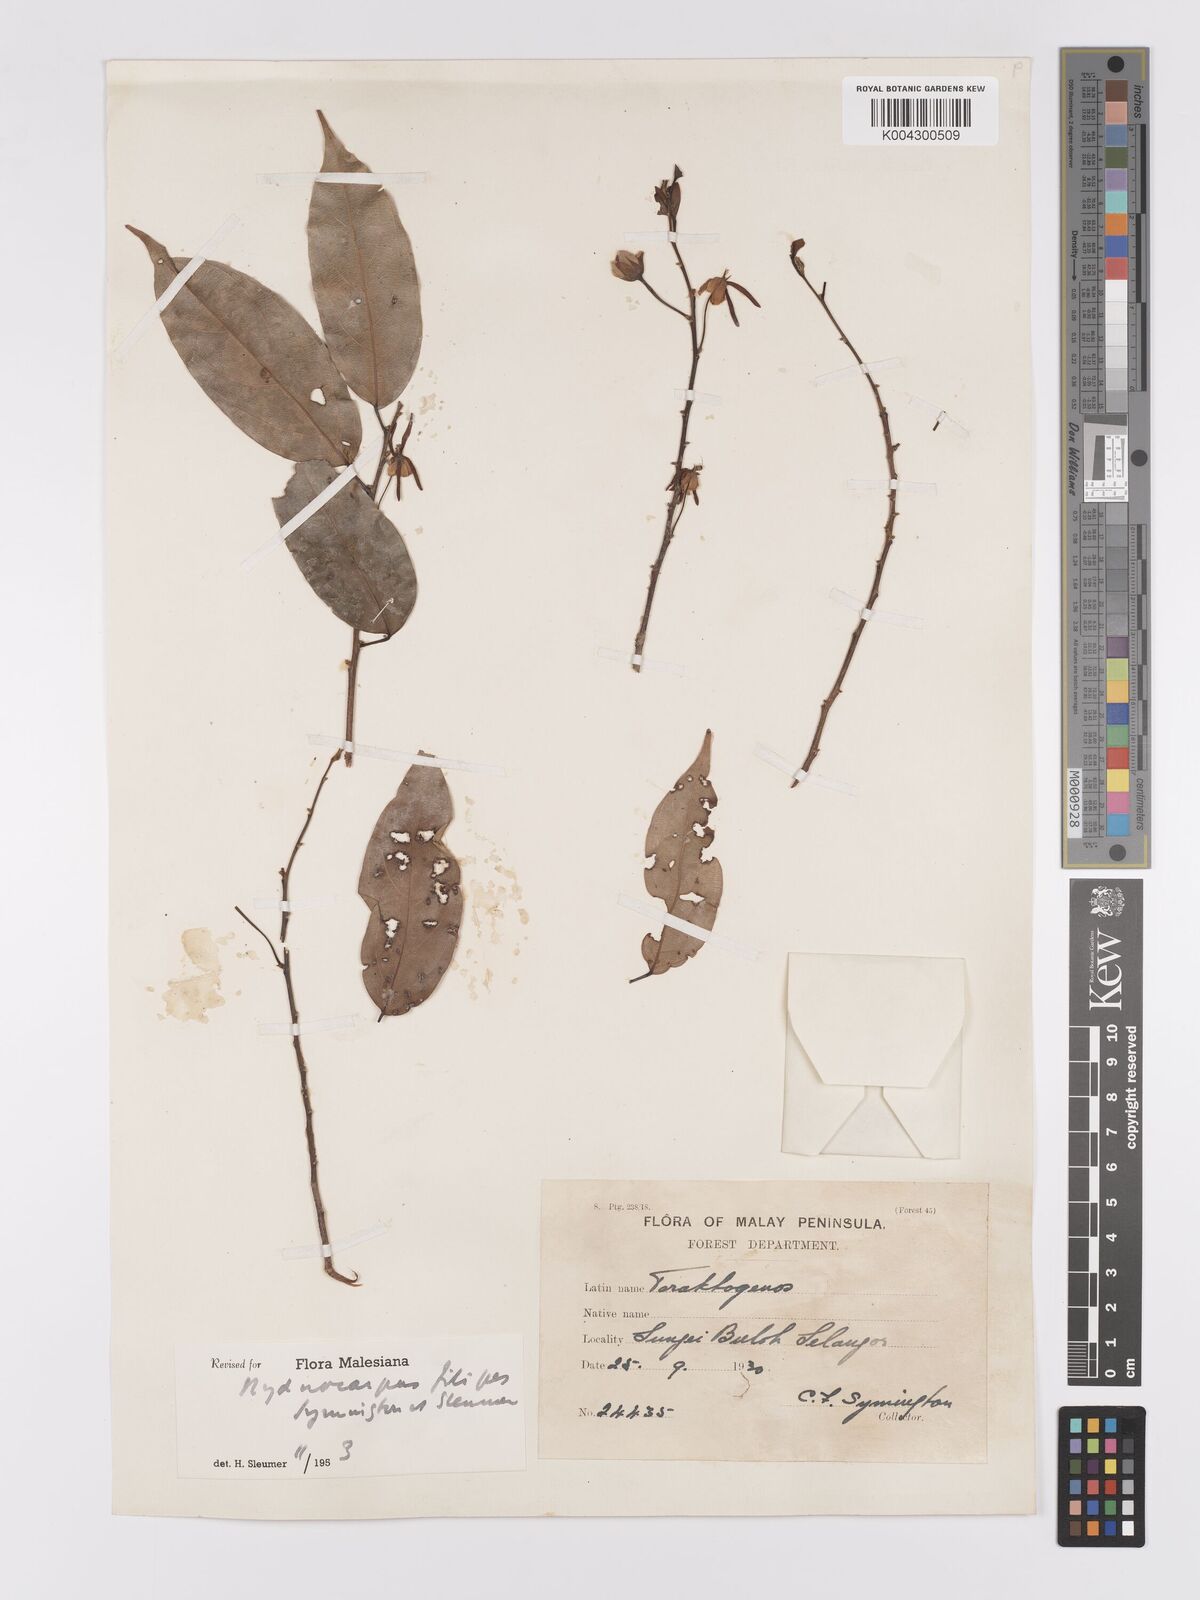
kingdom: Plantae
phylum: Tracheophyta
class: Magnoliopsida
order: Malpighiales
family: Achariaceae
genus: Hydnocarpus
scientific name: Hydnocarpus filipes
